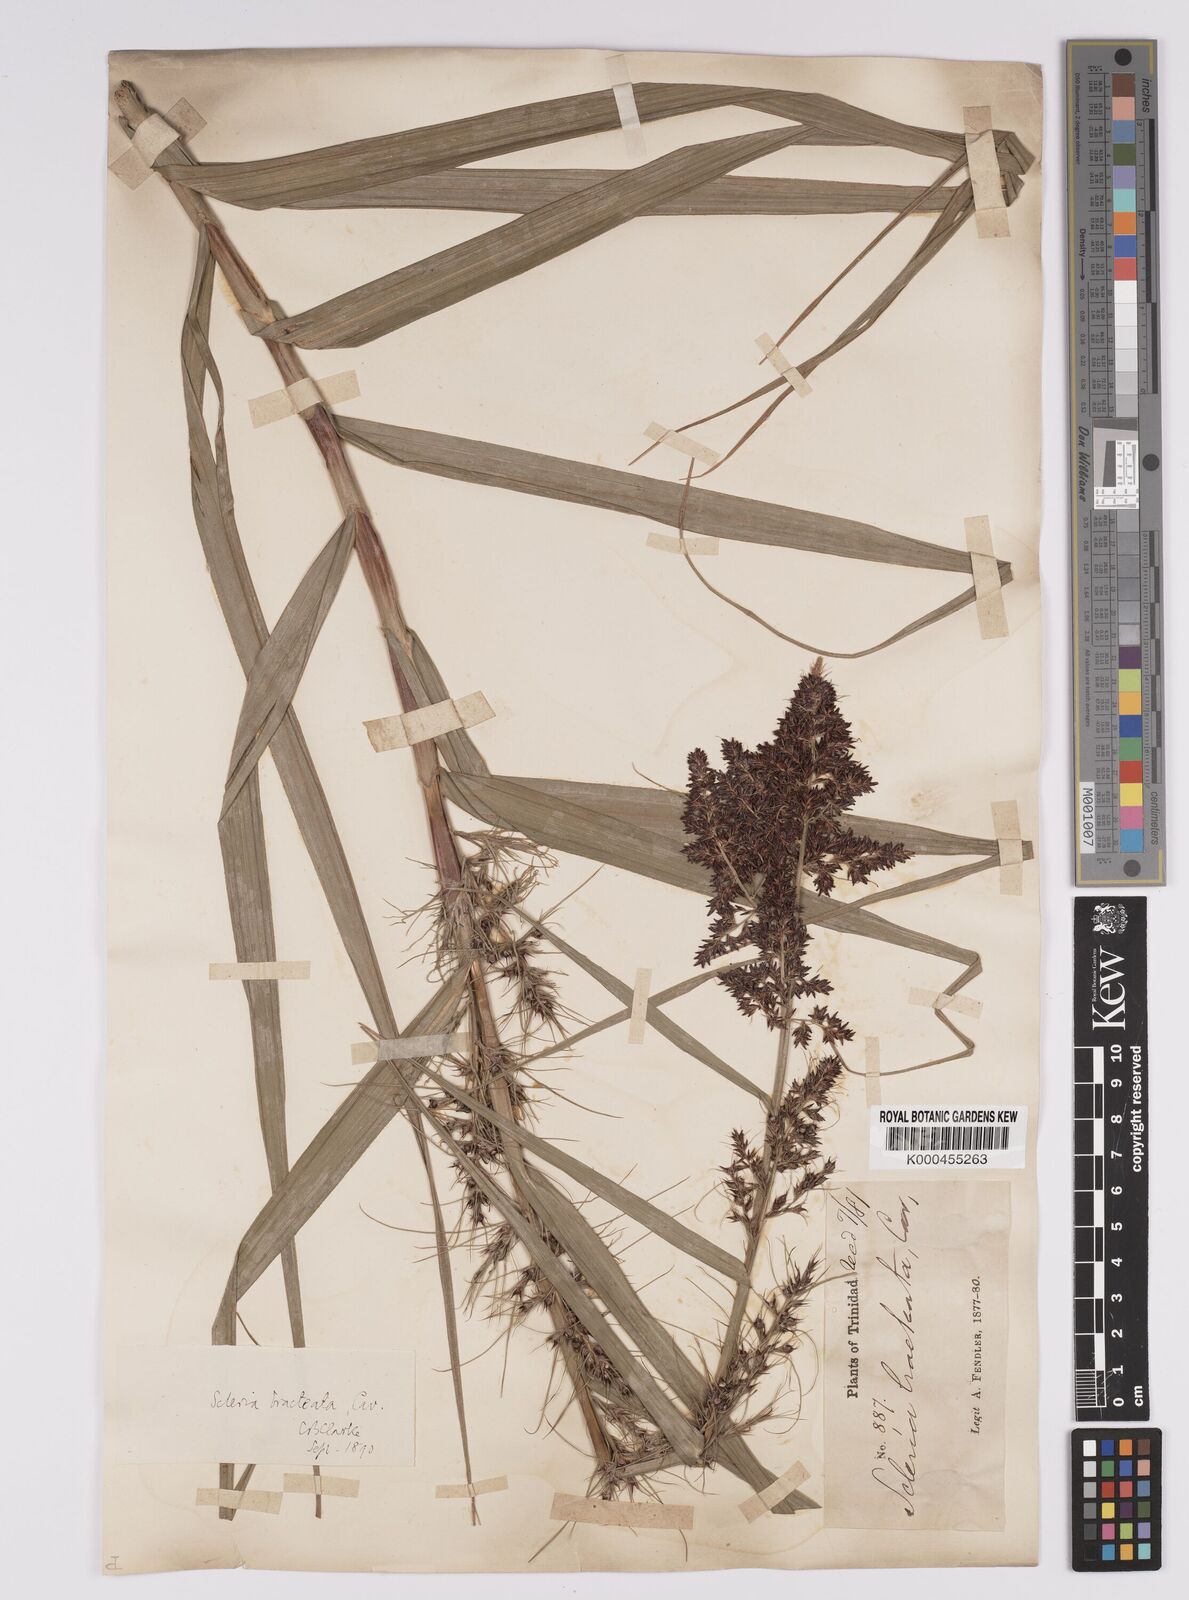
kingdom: Plantae
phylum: Tracheophyta
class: Liliopsida
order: Poales
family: Cyperaceae
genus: Scleria
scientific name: Scleria bracteata
